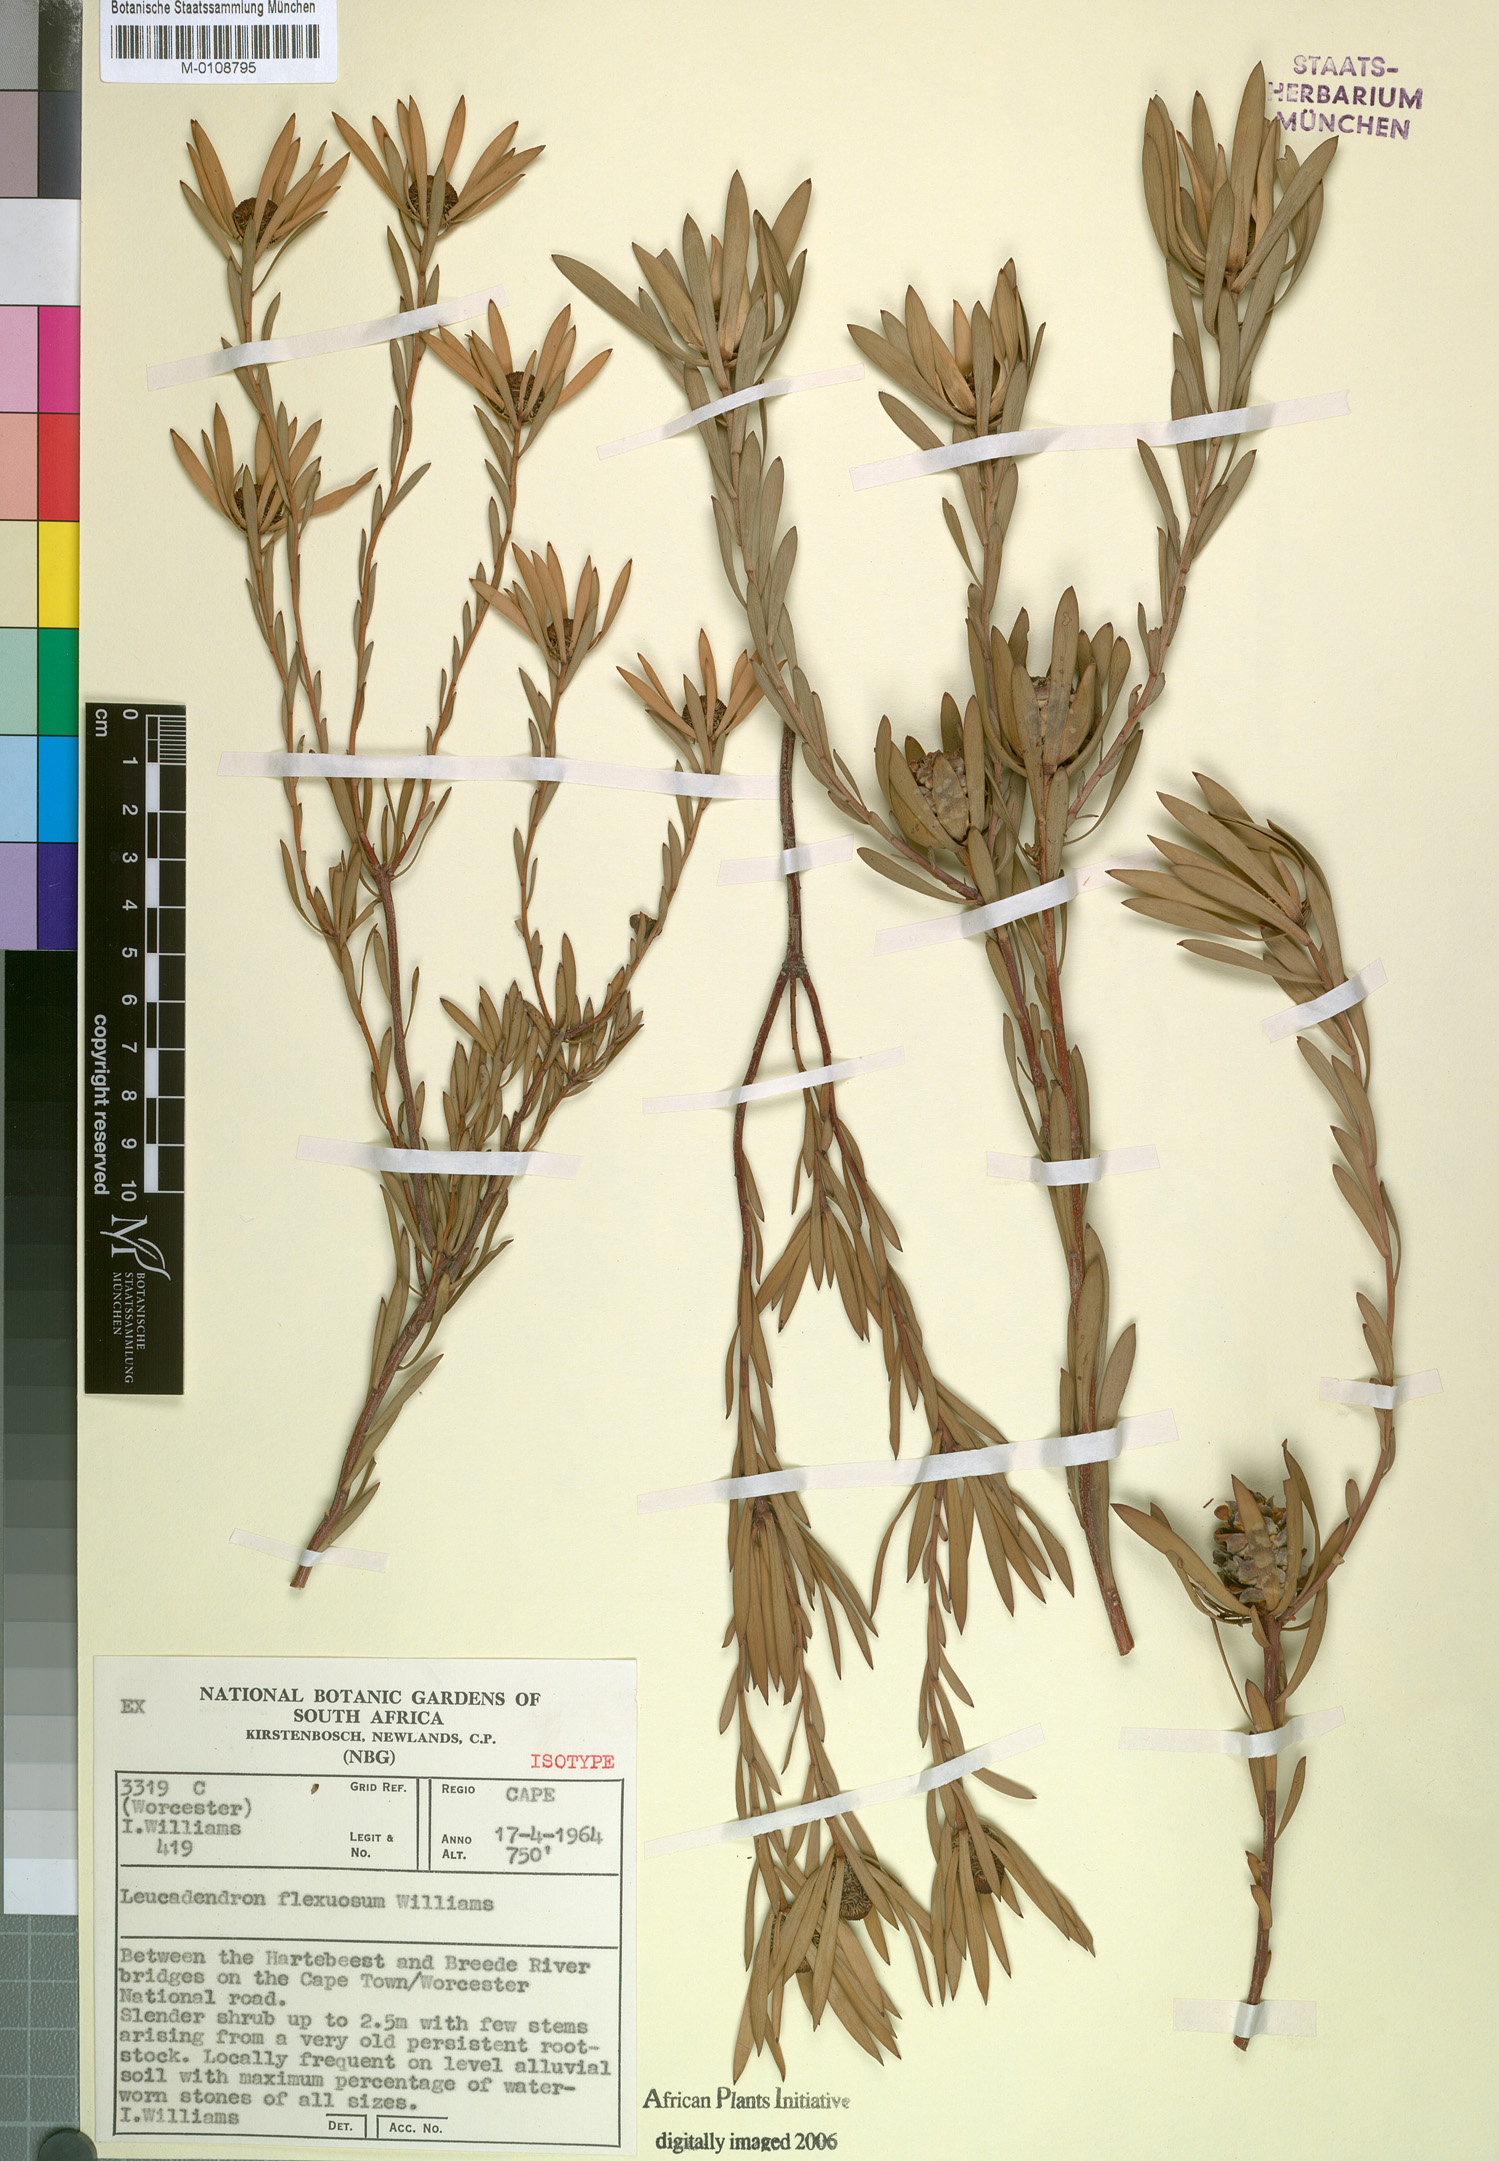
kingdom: Plantae
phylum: Tracheophyta
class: Magnoliopsida
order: Proteales
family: Proteaceae
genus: Leucadendron
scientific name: Leucadendron flexuosum
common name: Worcester conebush
